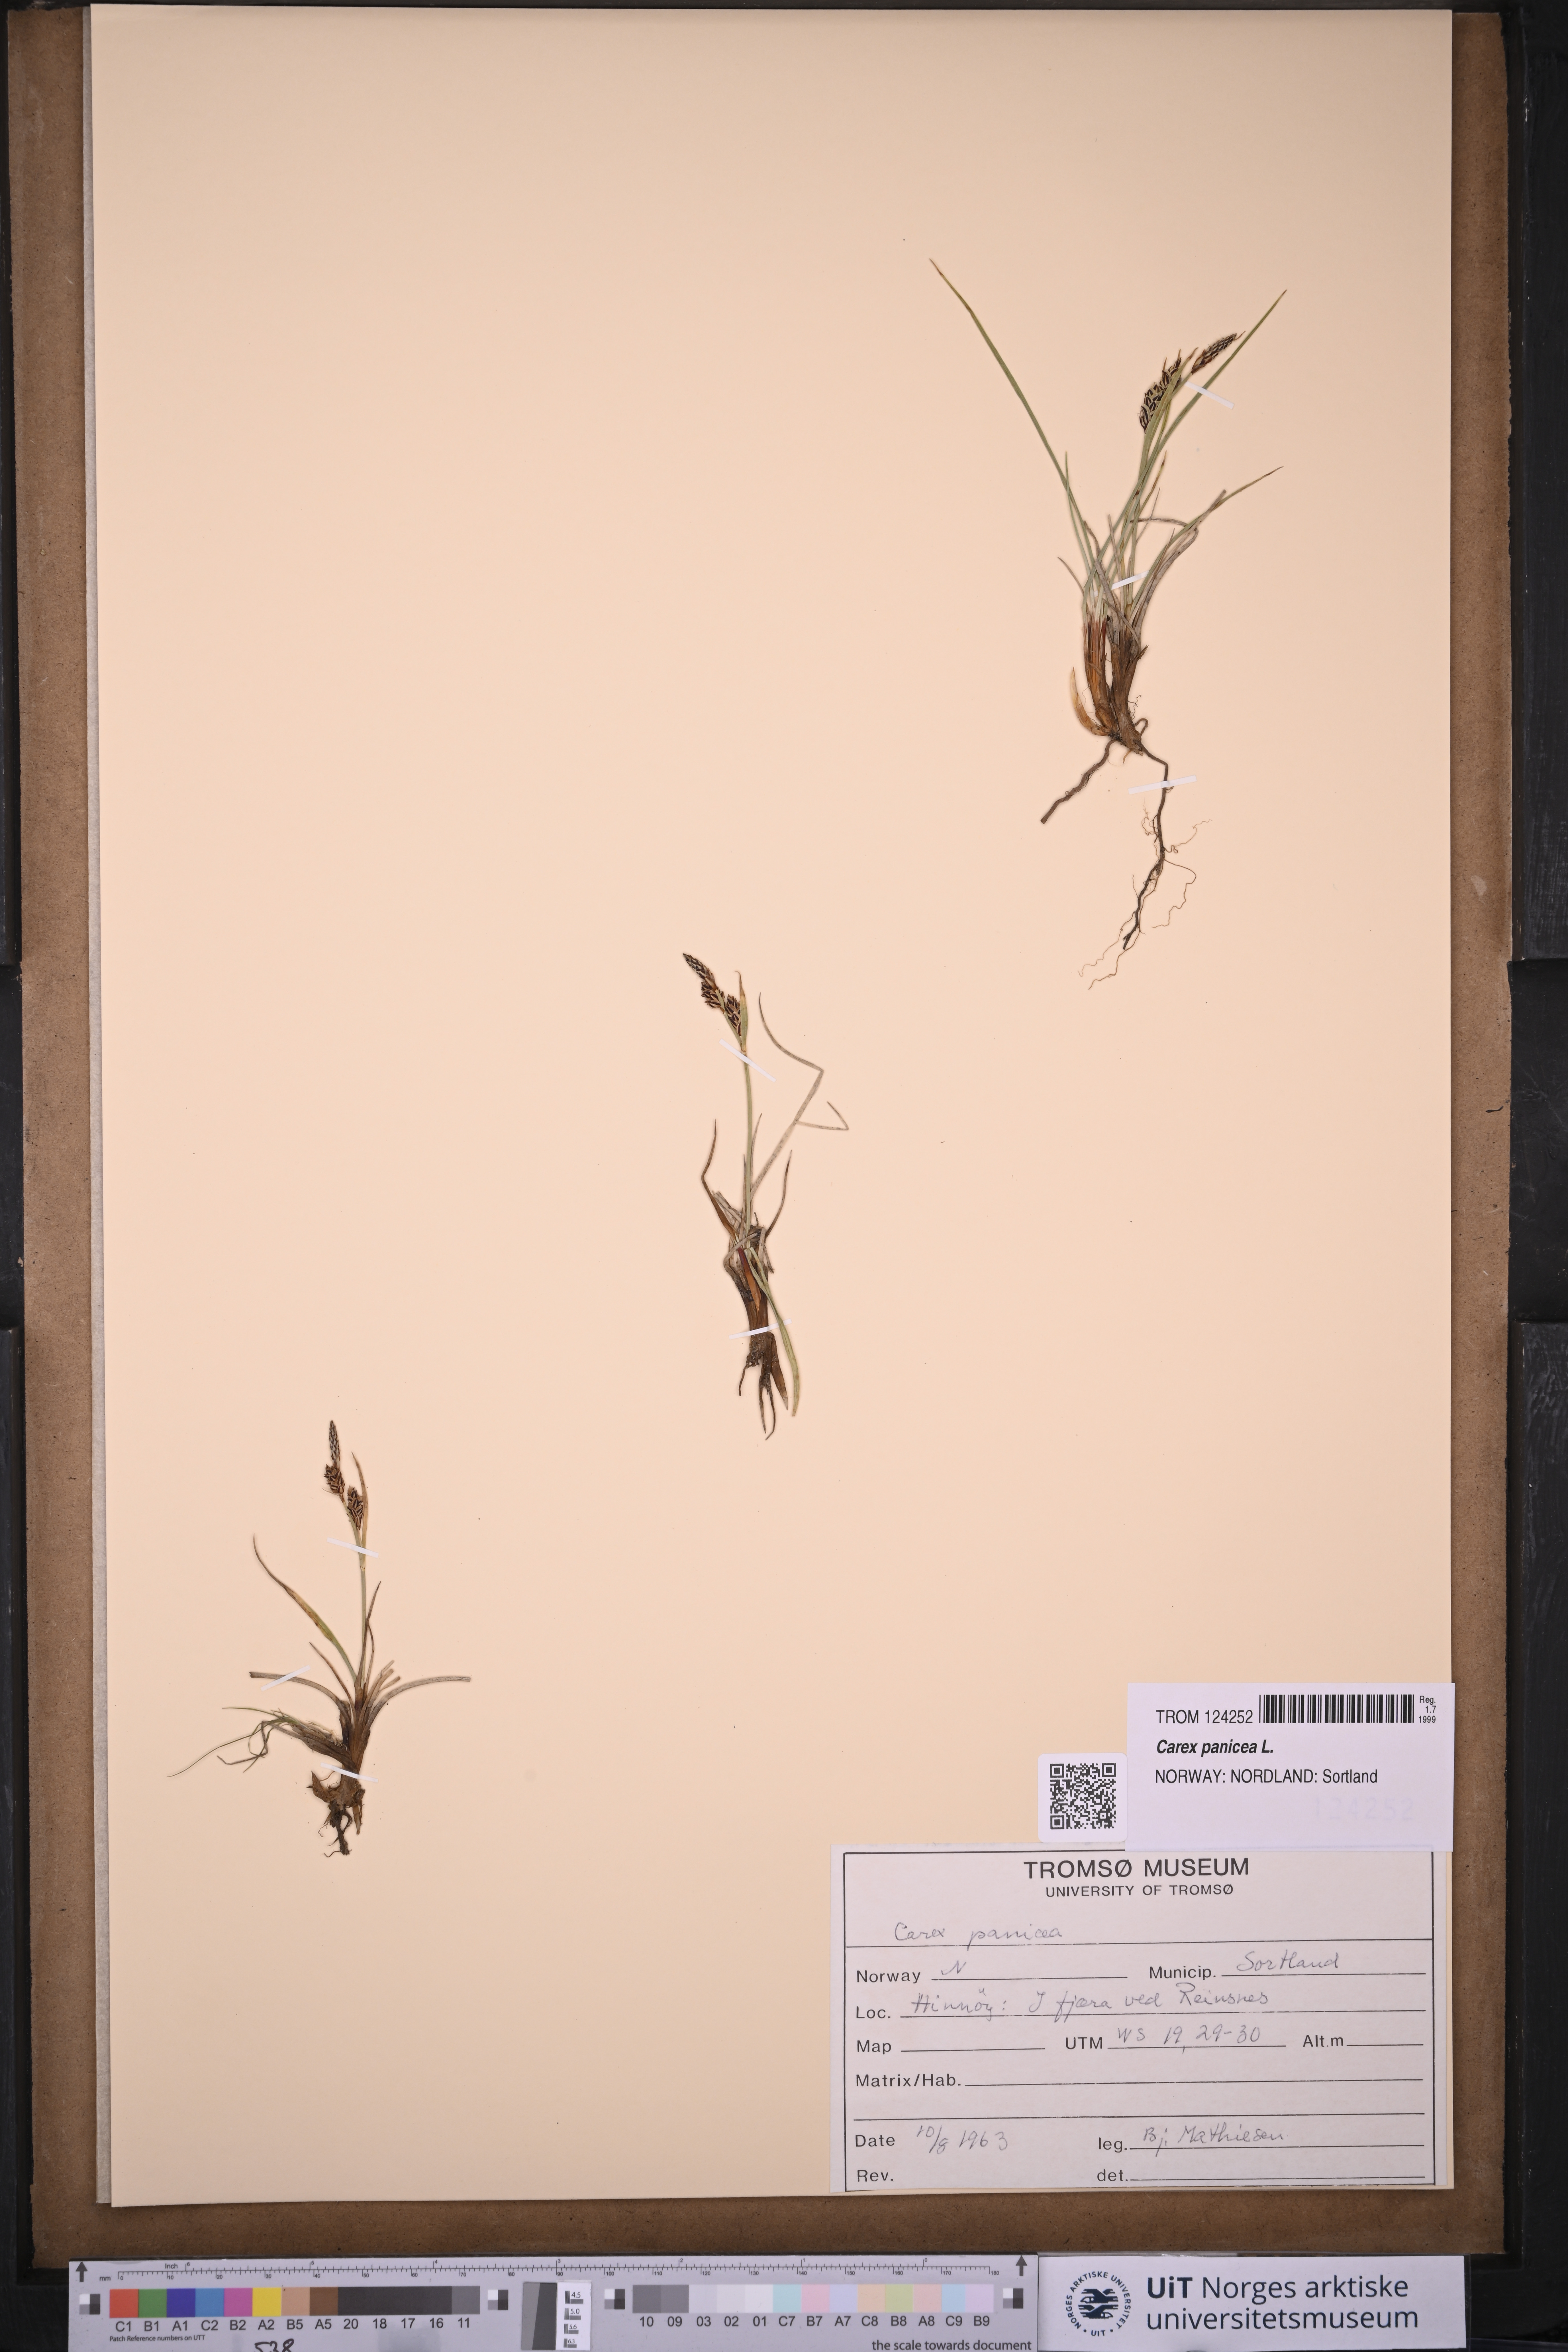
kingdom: Plantae
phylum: Tracheophyta
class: Liliopsida
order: Poales
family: Cyperaceae
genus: Carex
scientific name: Carex panicea
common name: Carnation sedge
